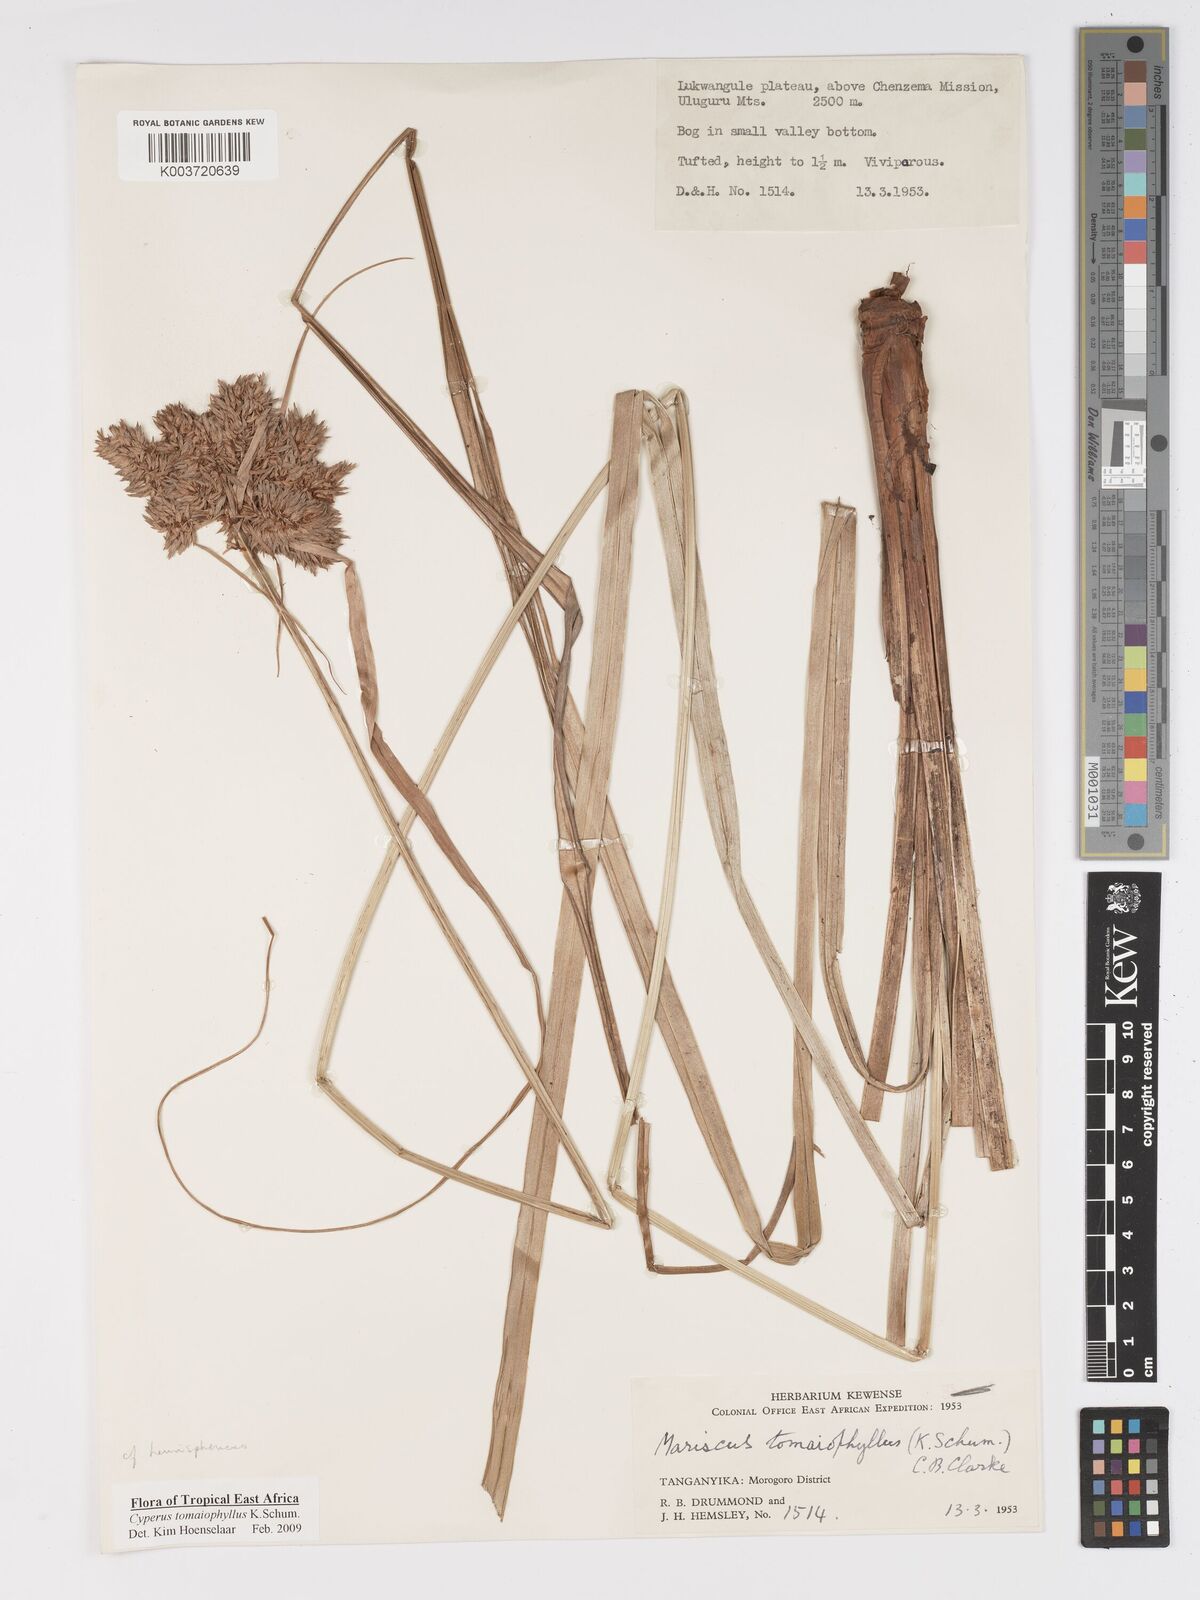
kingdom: Plantae
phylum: Tracheophyta
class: Liliopsida
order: Poales
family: Cyperaceae
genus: Cyperus
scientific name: Cyperus tomaiophyllus
